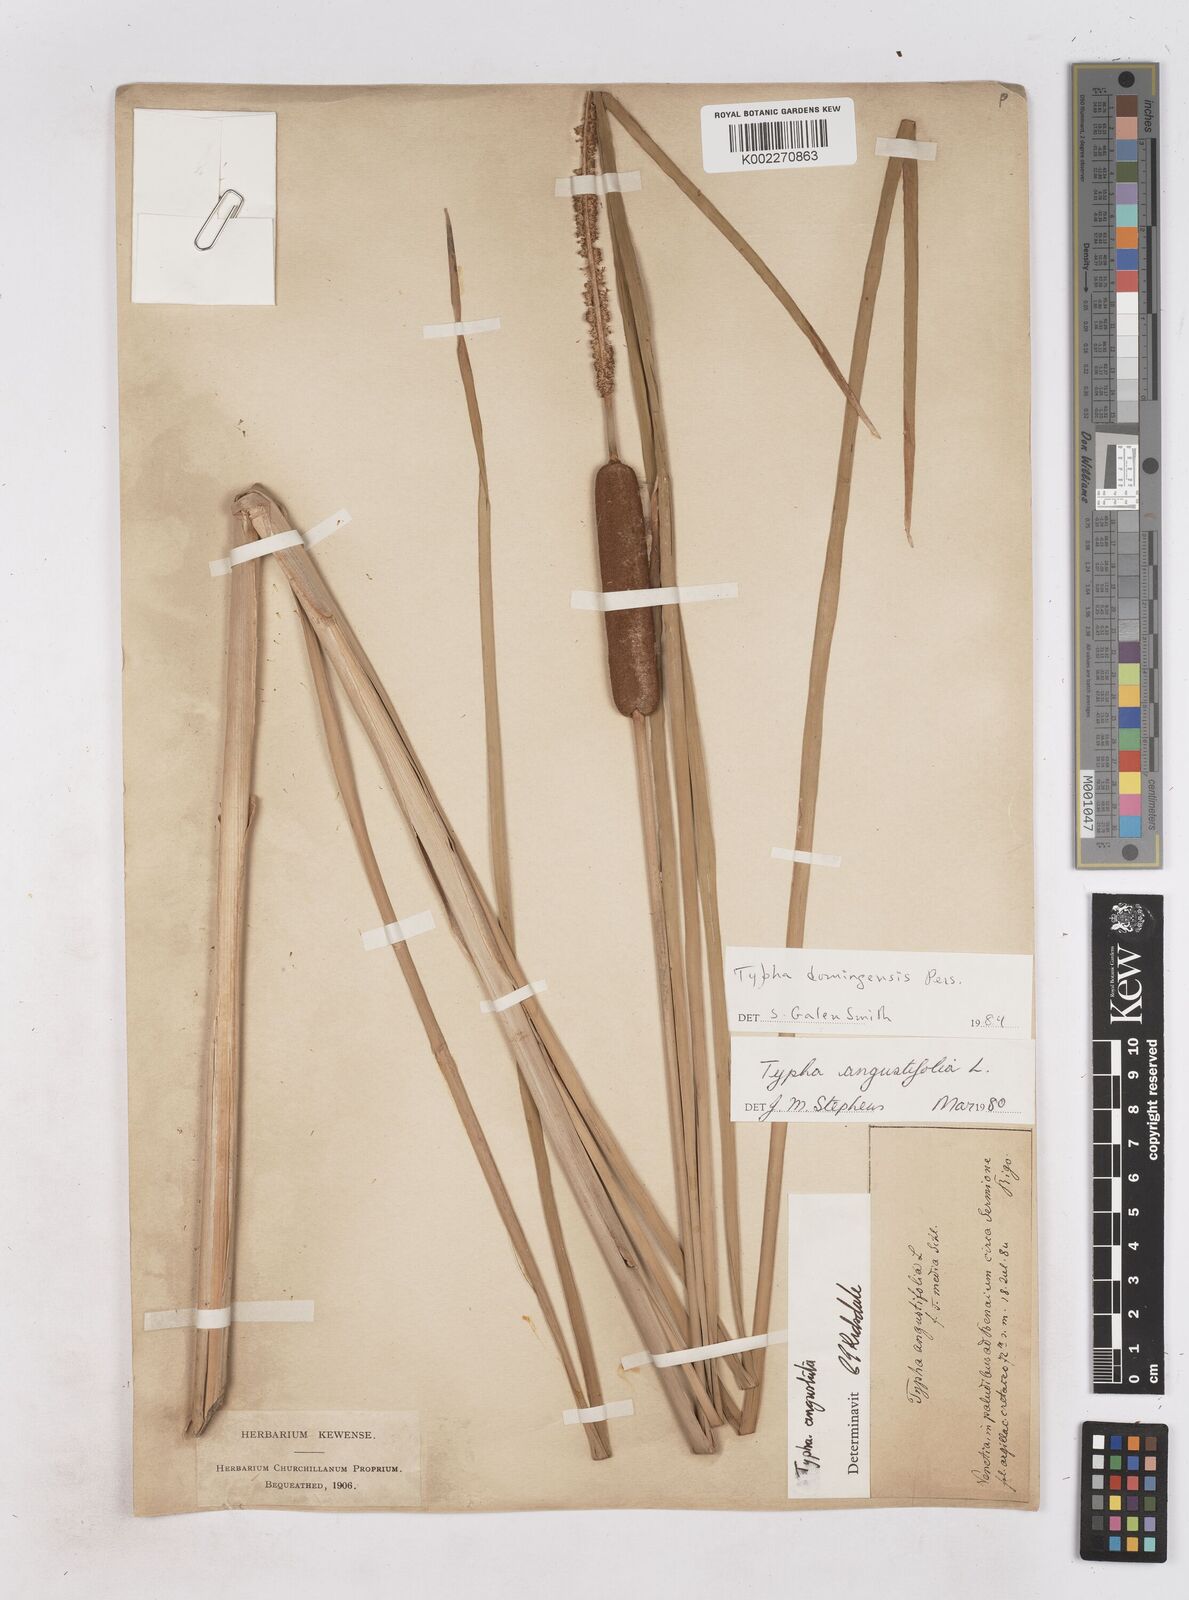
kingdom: Plantae
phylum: Tracheophyta
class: Liliopsida
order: Poales
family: Typhaceae
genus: Typha
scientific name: Typha domingensis
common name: Southern cattail
